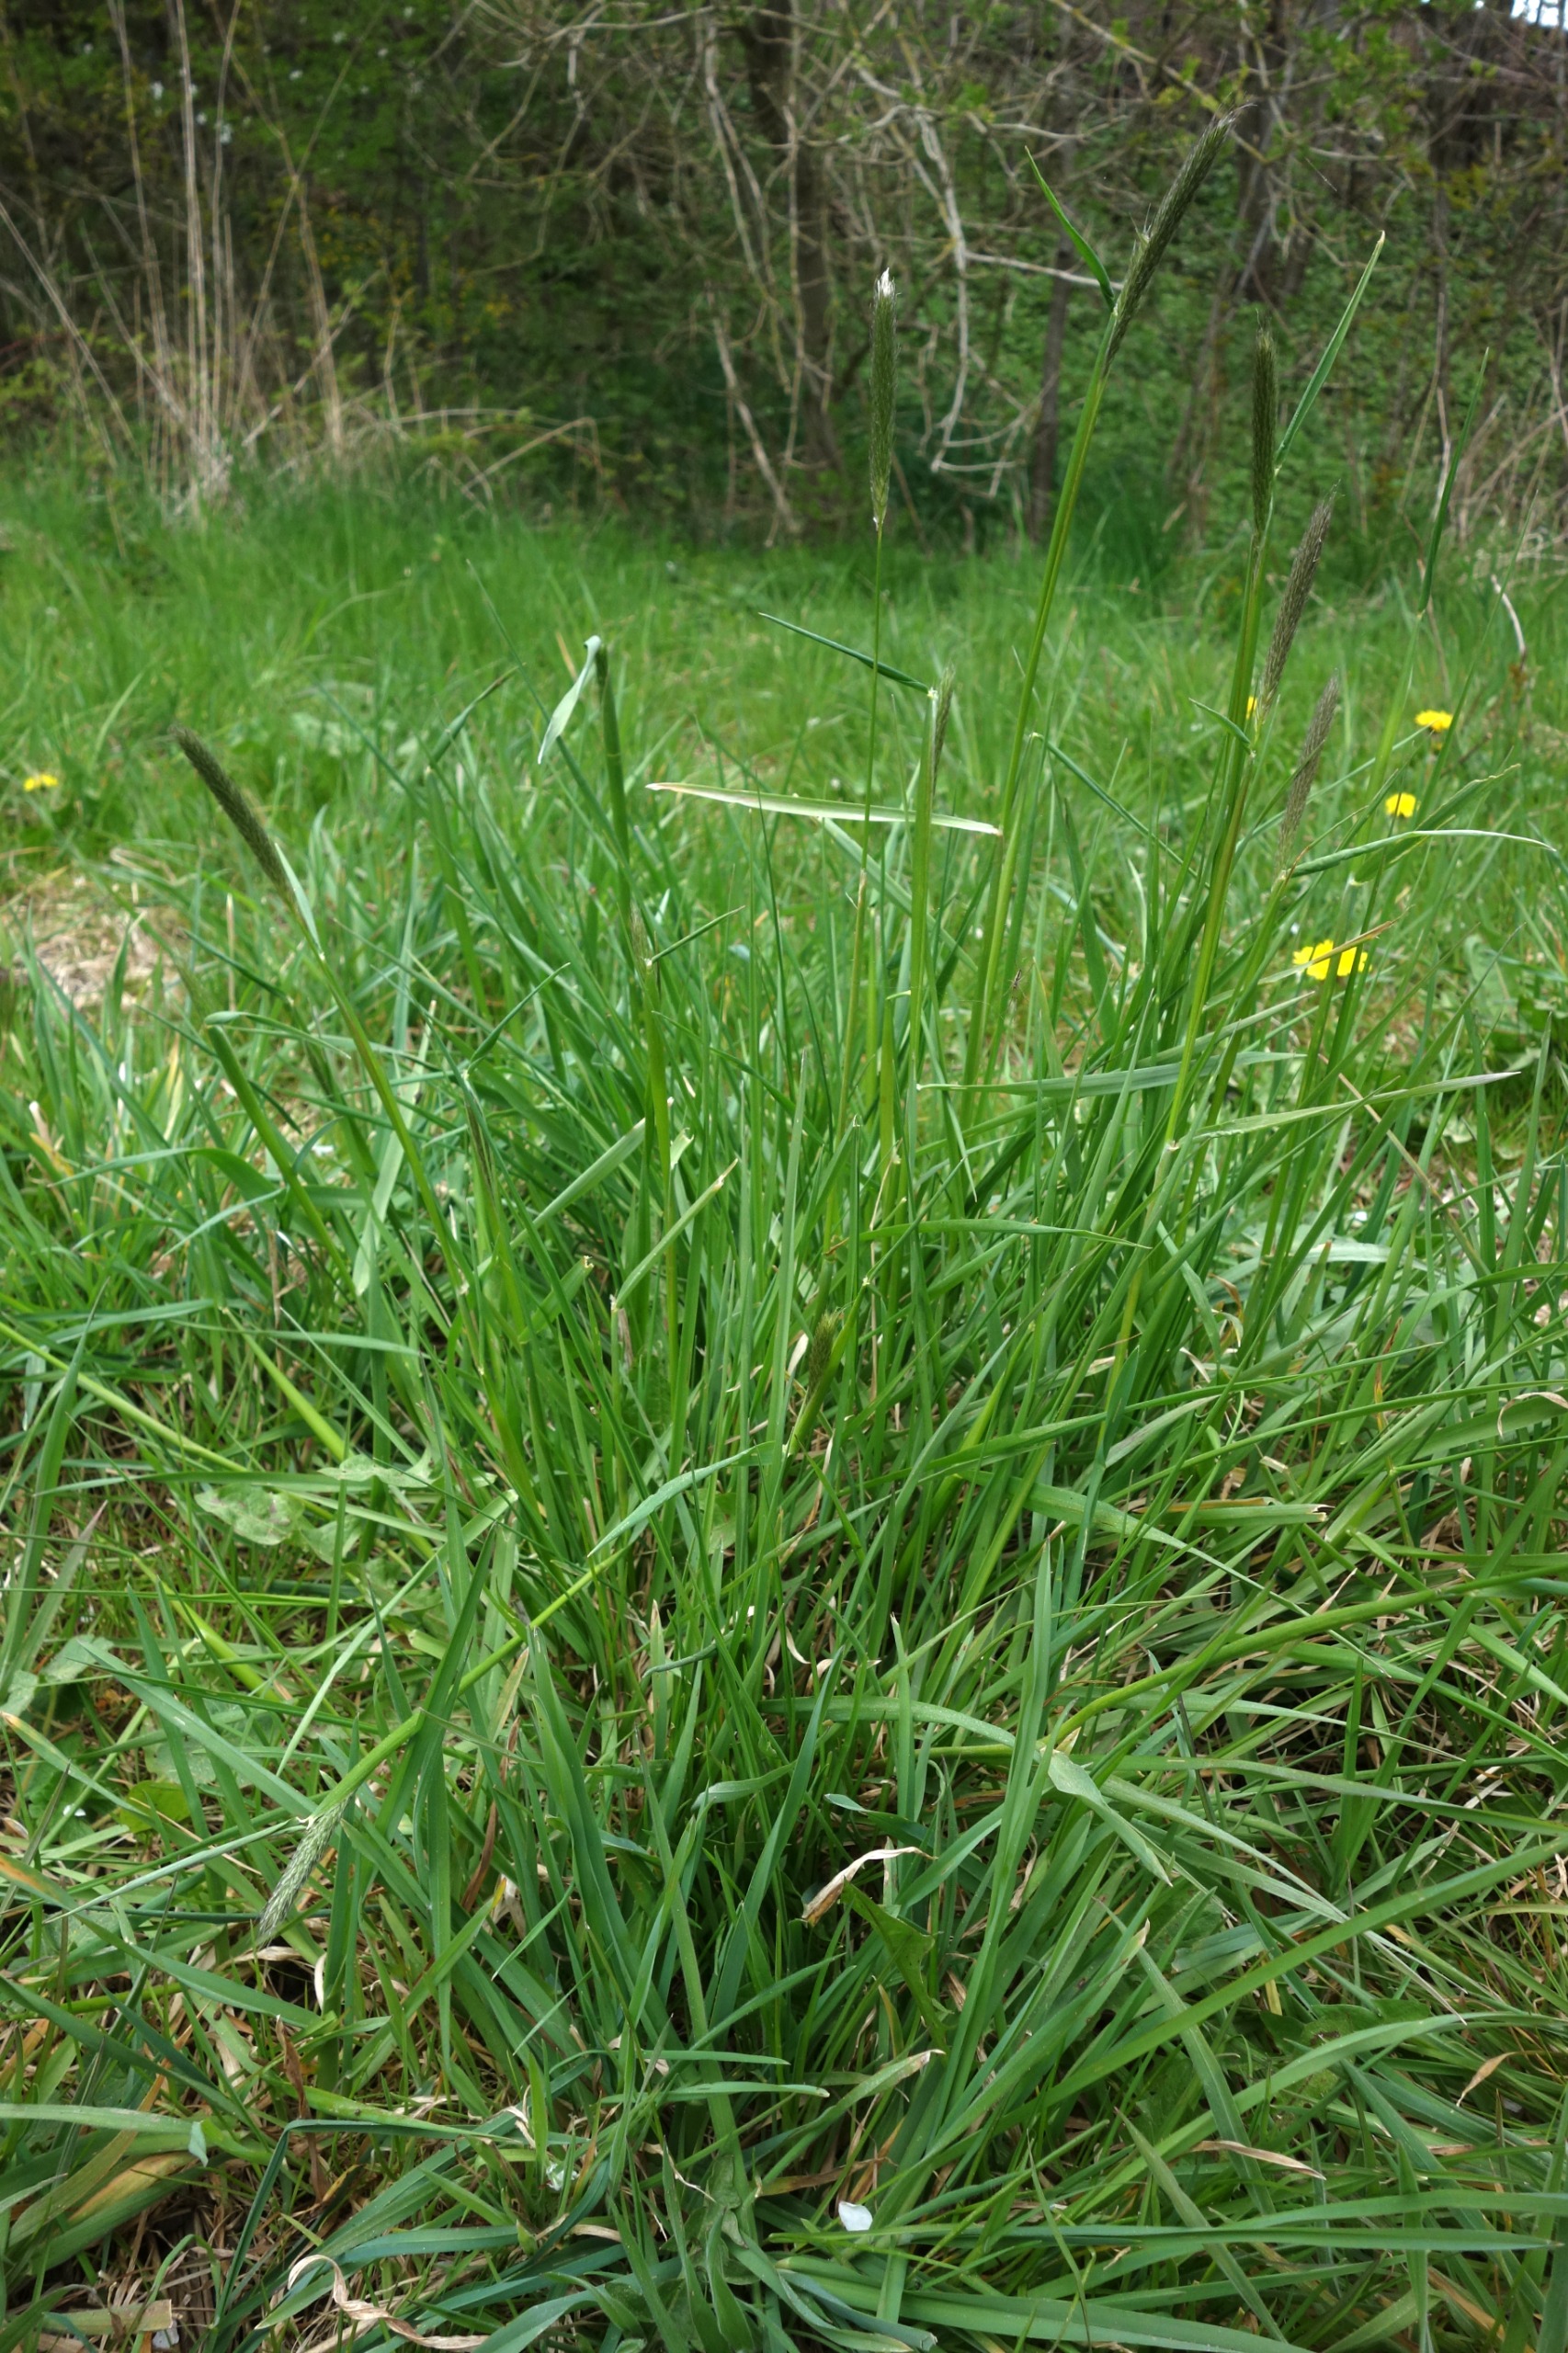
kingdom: Plantae
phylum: Tracheophyta
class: Liliopsida
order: Poales
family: Poaceae
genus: Alopecurus
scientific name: Alopecurus pratensis
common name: Eng-rævehale
